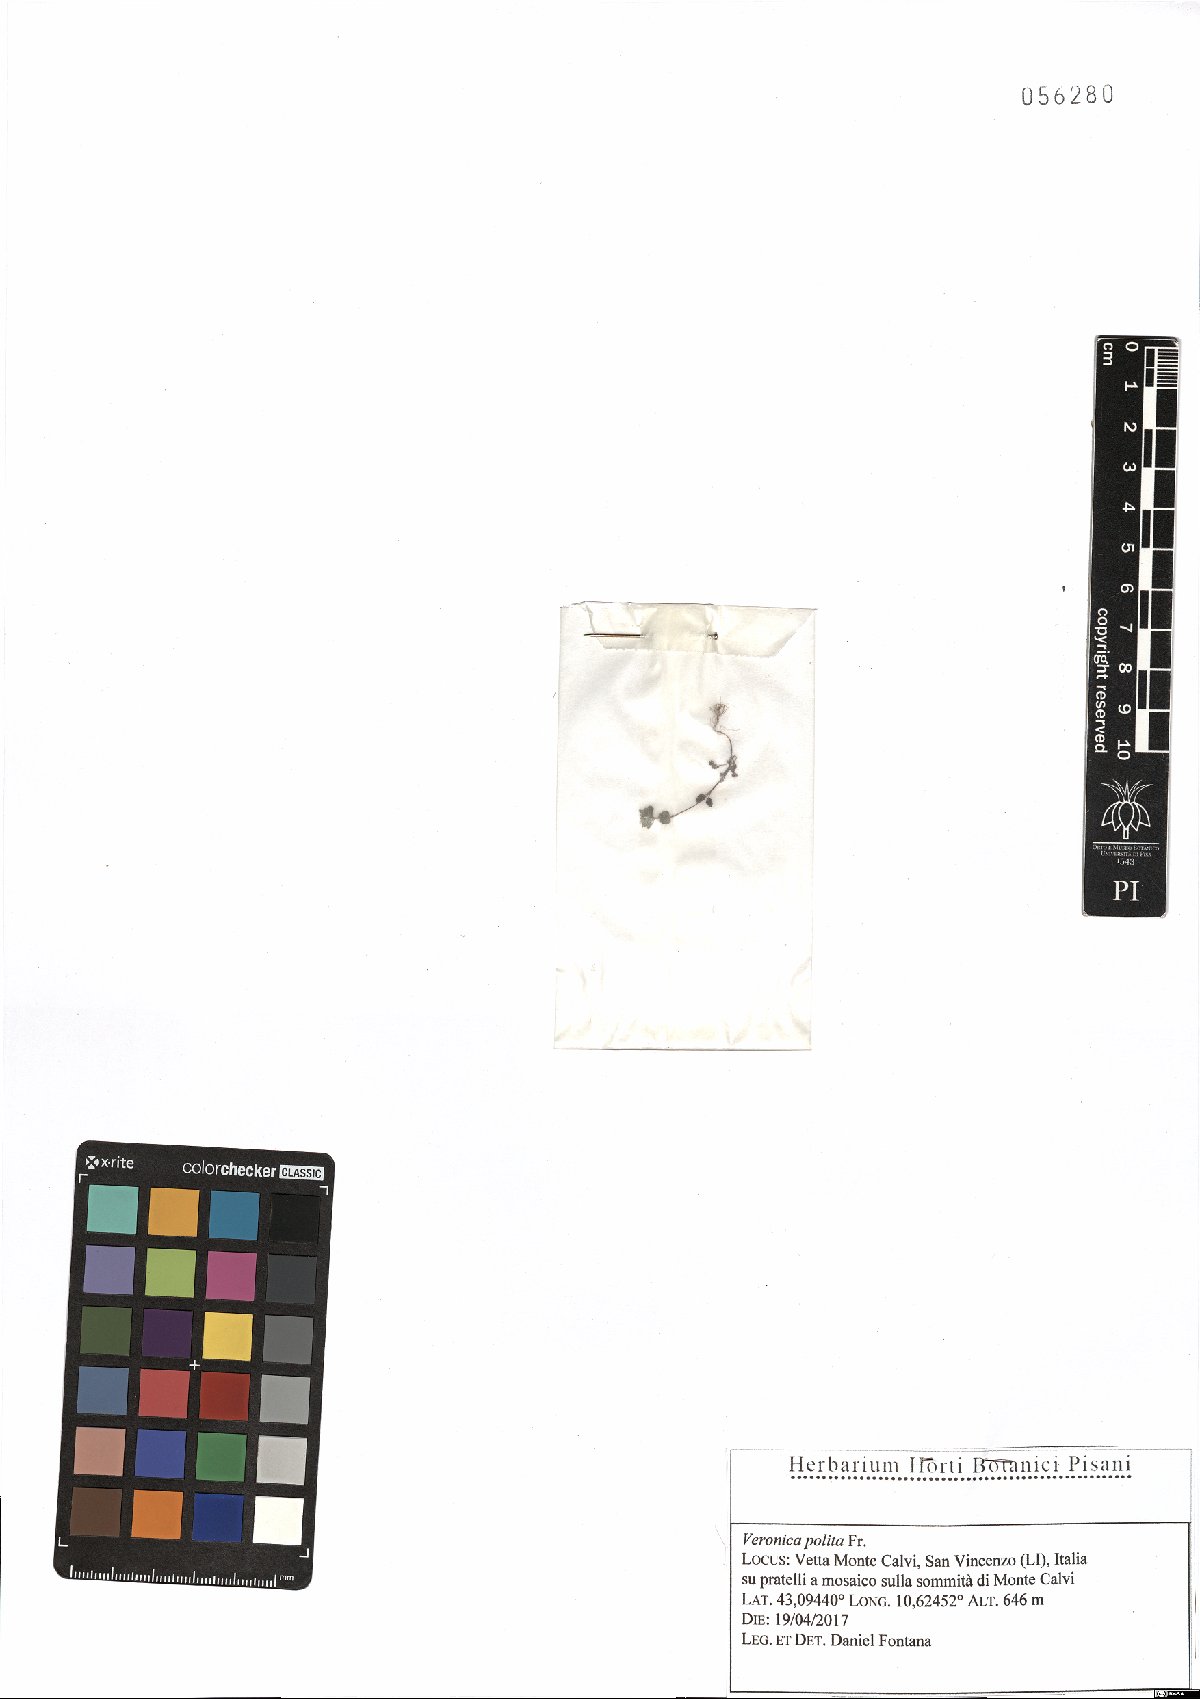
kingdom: Plantae
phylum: Tracheophyta
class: Magnoliopsida
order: Lamiales
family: Plantaginaceae
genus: Veronica
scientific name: Veronica polita
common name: Grey field-speedwell
